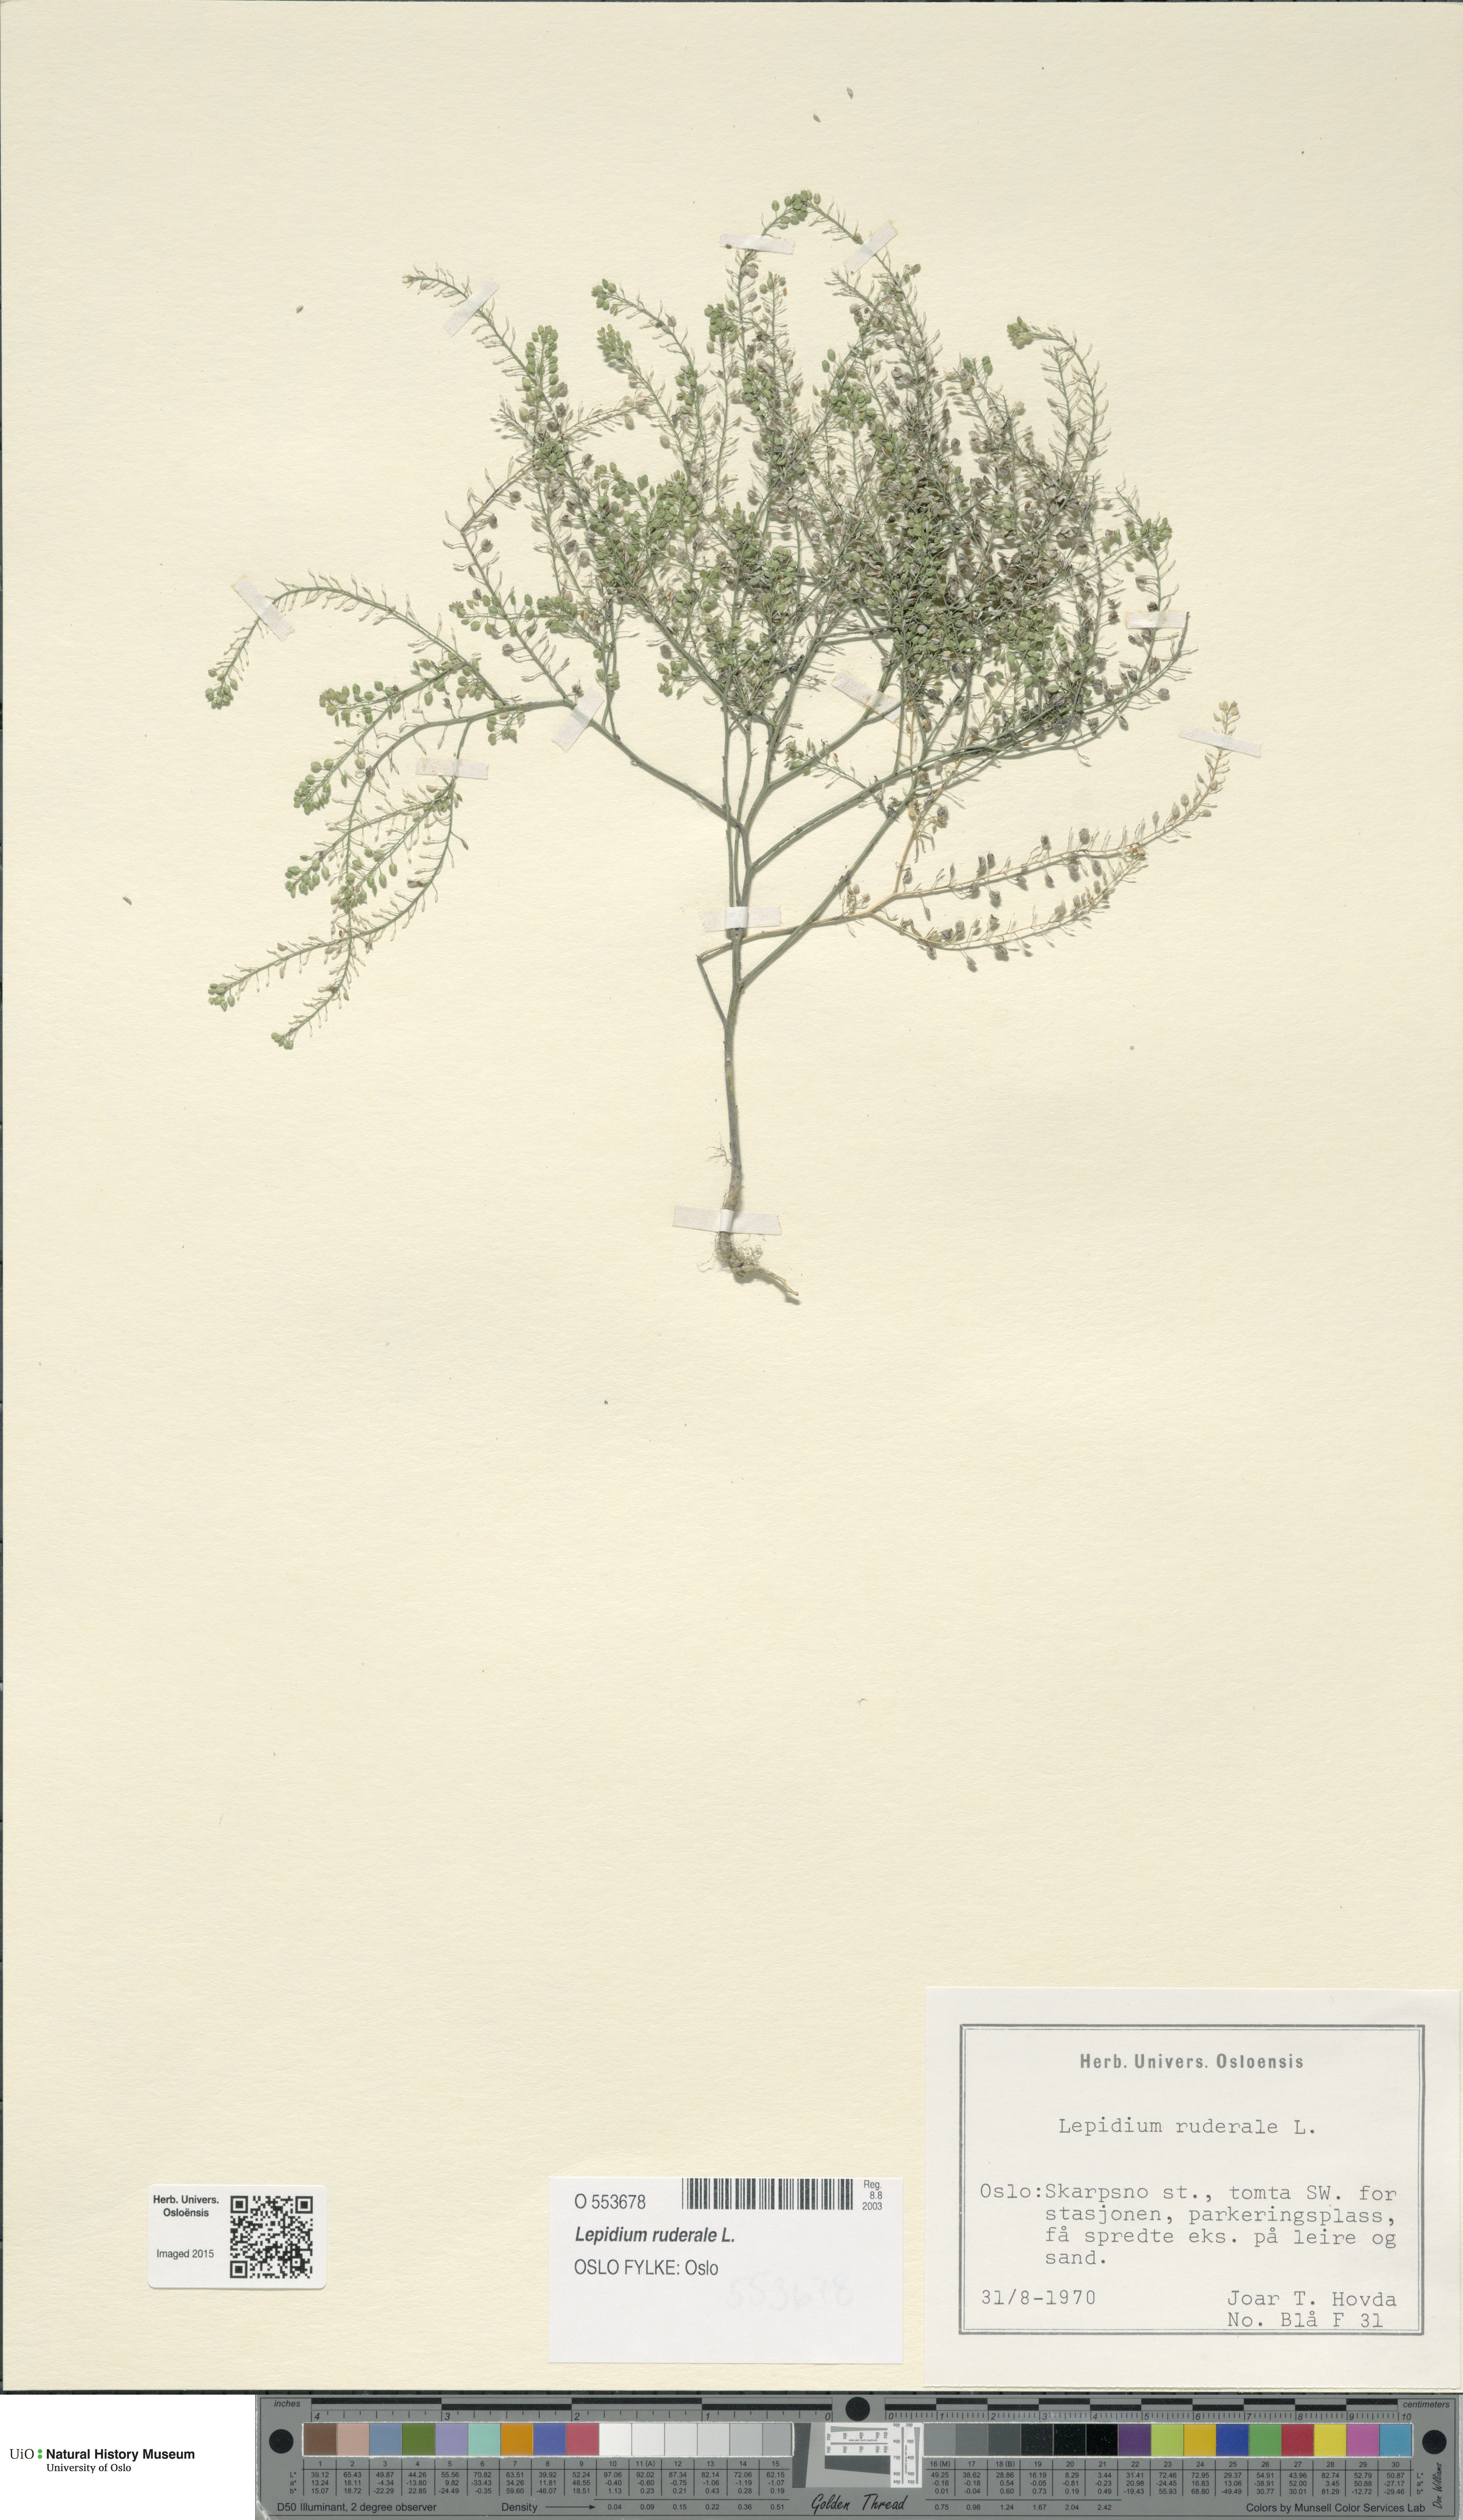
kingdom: Plantae
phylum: Tracheophyta
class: Magnoliopsida
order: Brassicales
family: Brassicaceae
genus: Lepidium
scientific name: Lepidium ruderale
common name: Narrow-leaved pepperwort
